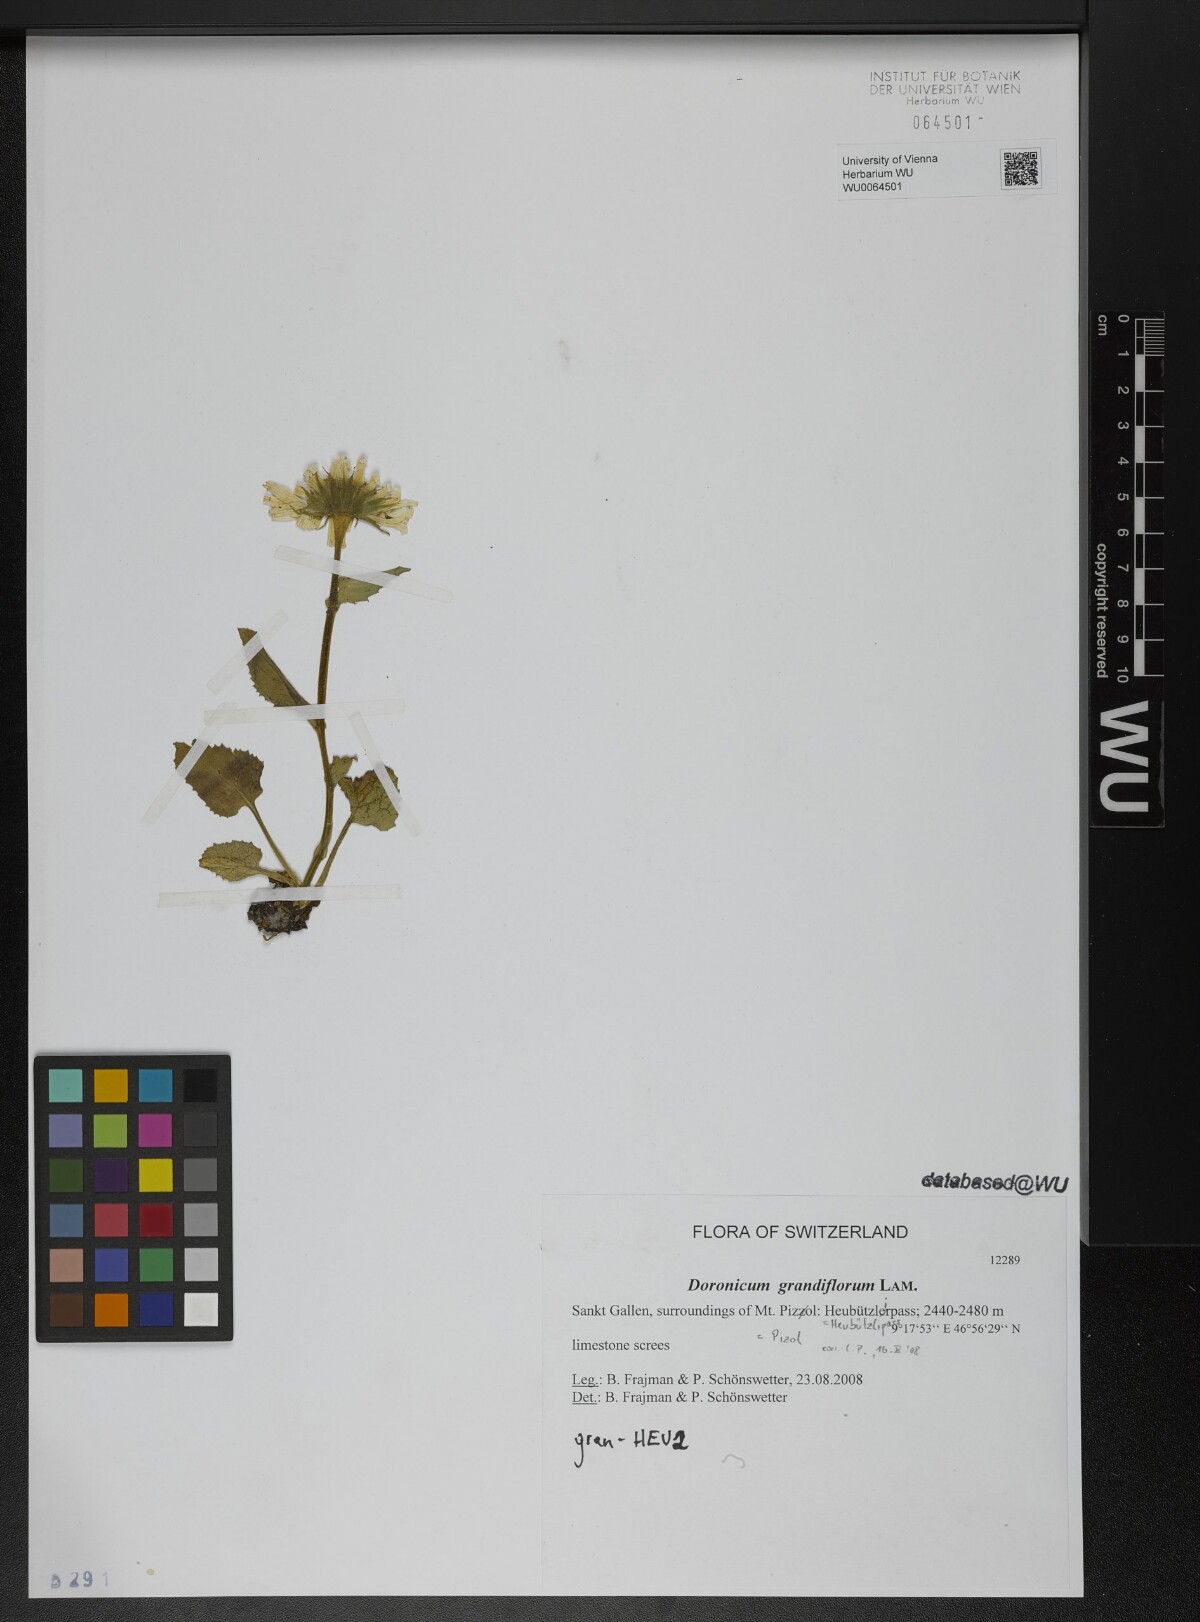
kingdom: Plantae
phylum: Tracheophyta
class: Magnoliopsida
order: Asterales
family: Asteraceae
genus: Doronicum
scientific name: Doronicum grandiflorum
